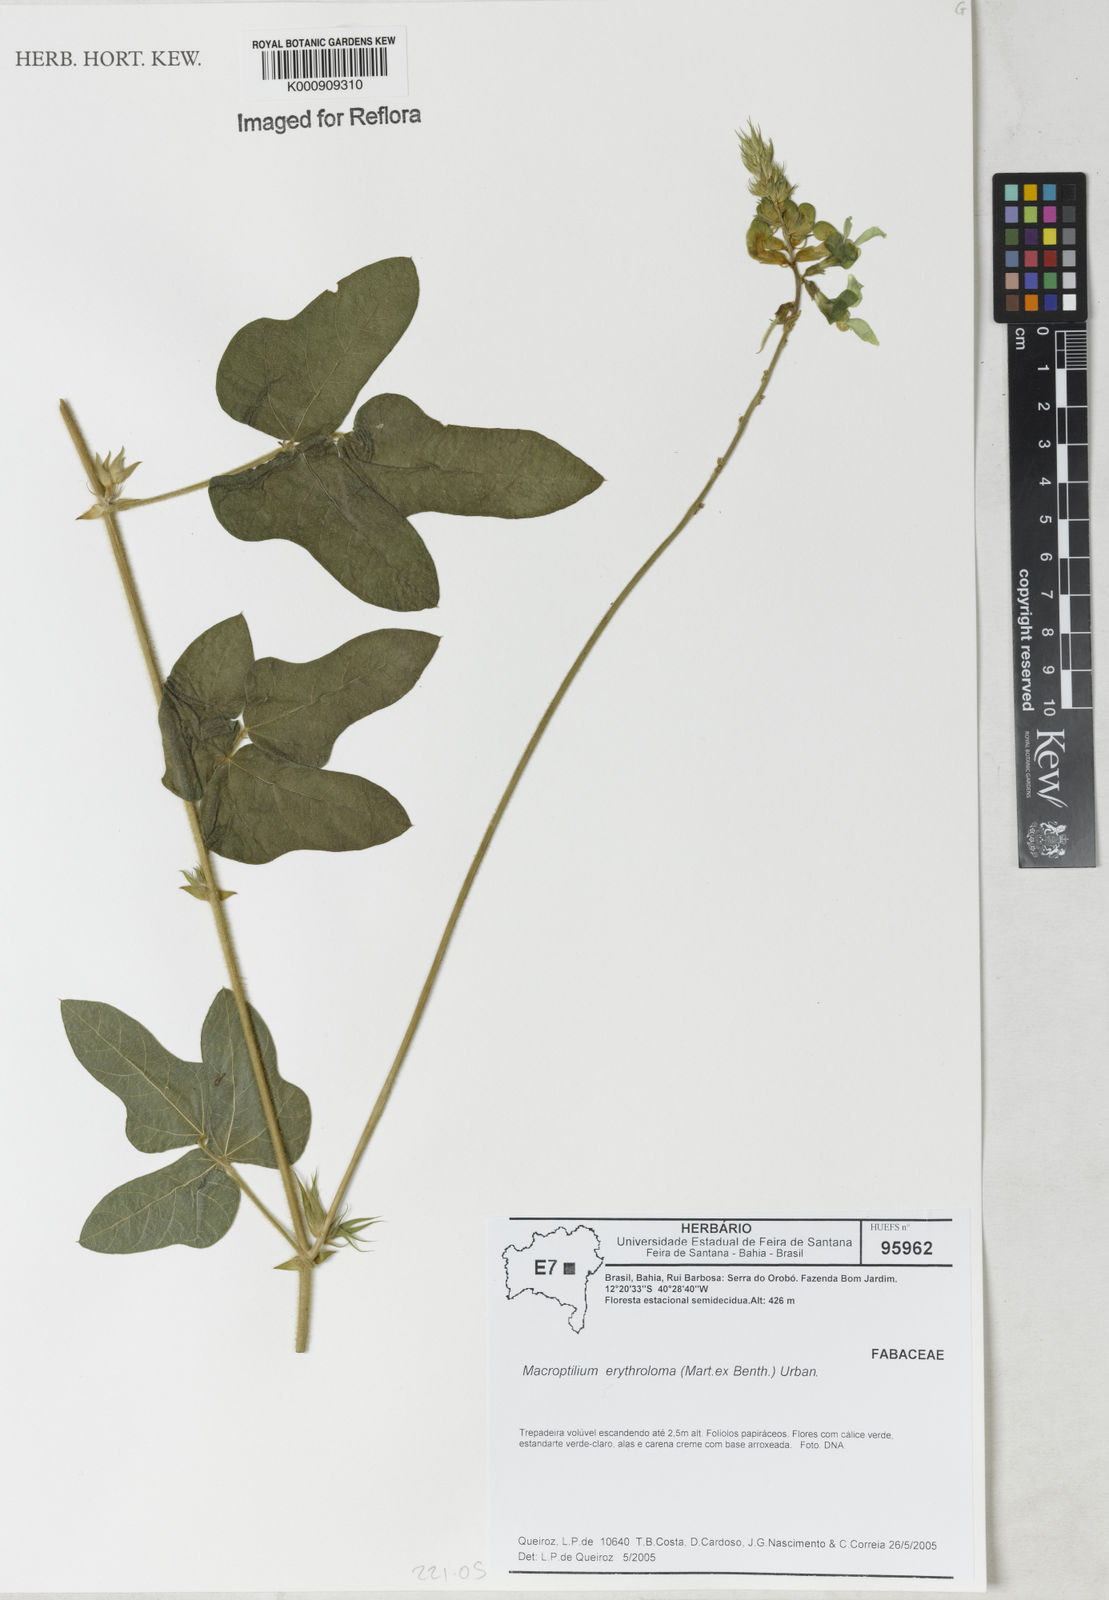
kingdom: Plantae
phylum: Tracheophyta
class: Magnoliopsida
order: Fabales
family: Fabaceae
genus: Macroptilium
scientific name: Macroptilium erythroloma
